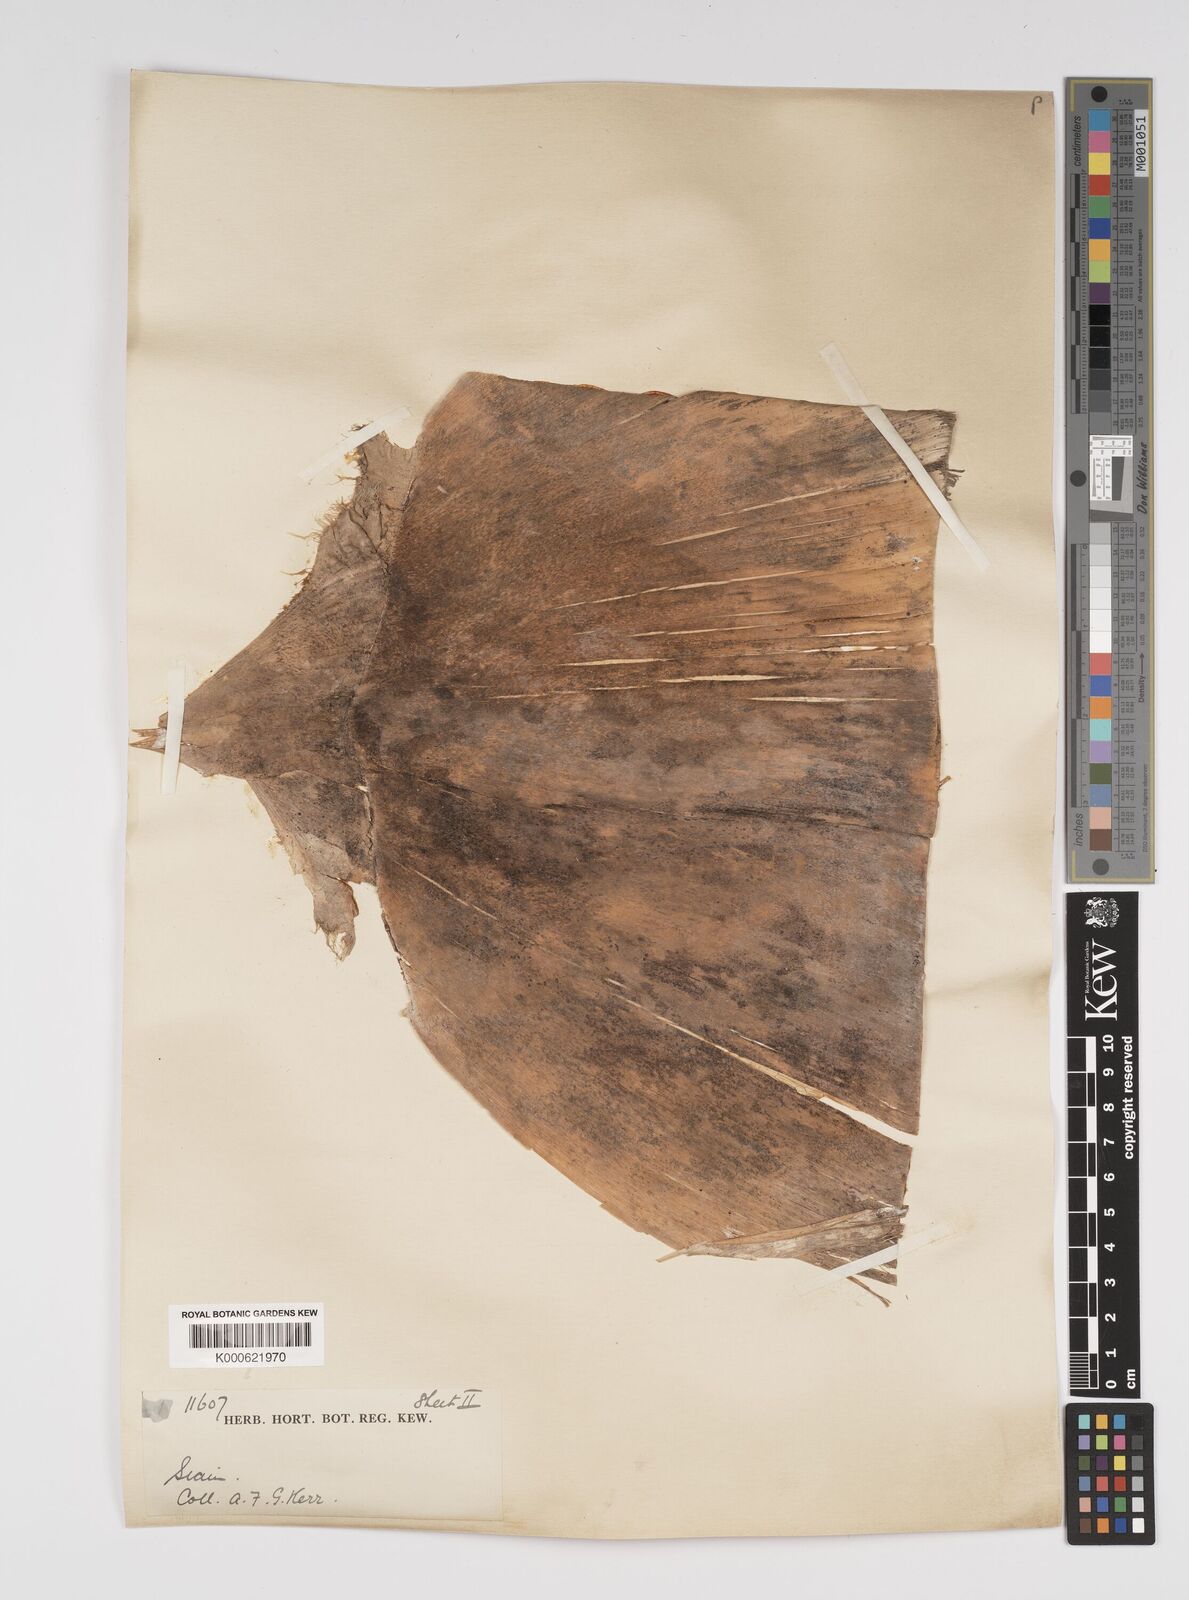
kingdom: Plantae
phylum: Tracheophyta
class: Liliopsida
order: Poales
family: Poaceae
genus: Bambusa
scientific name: Bambusa
